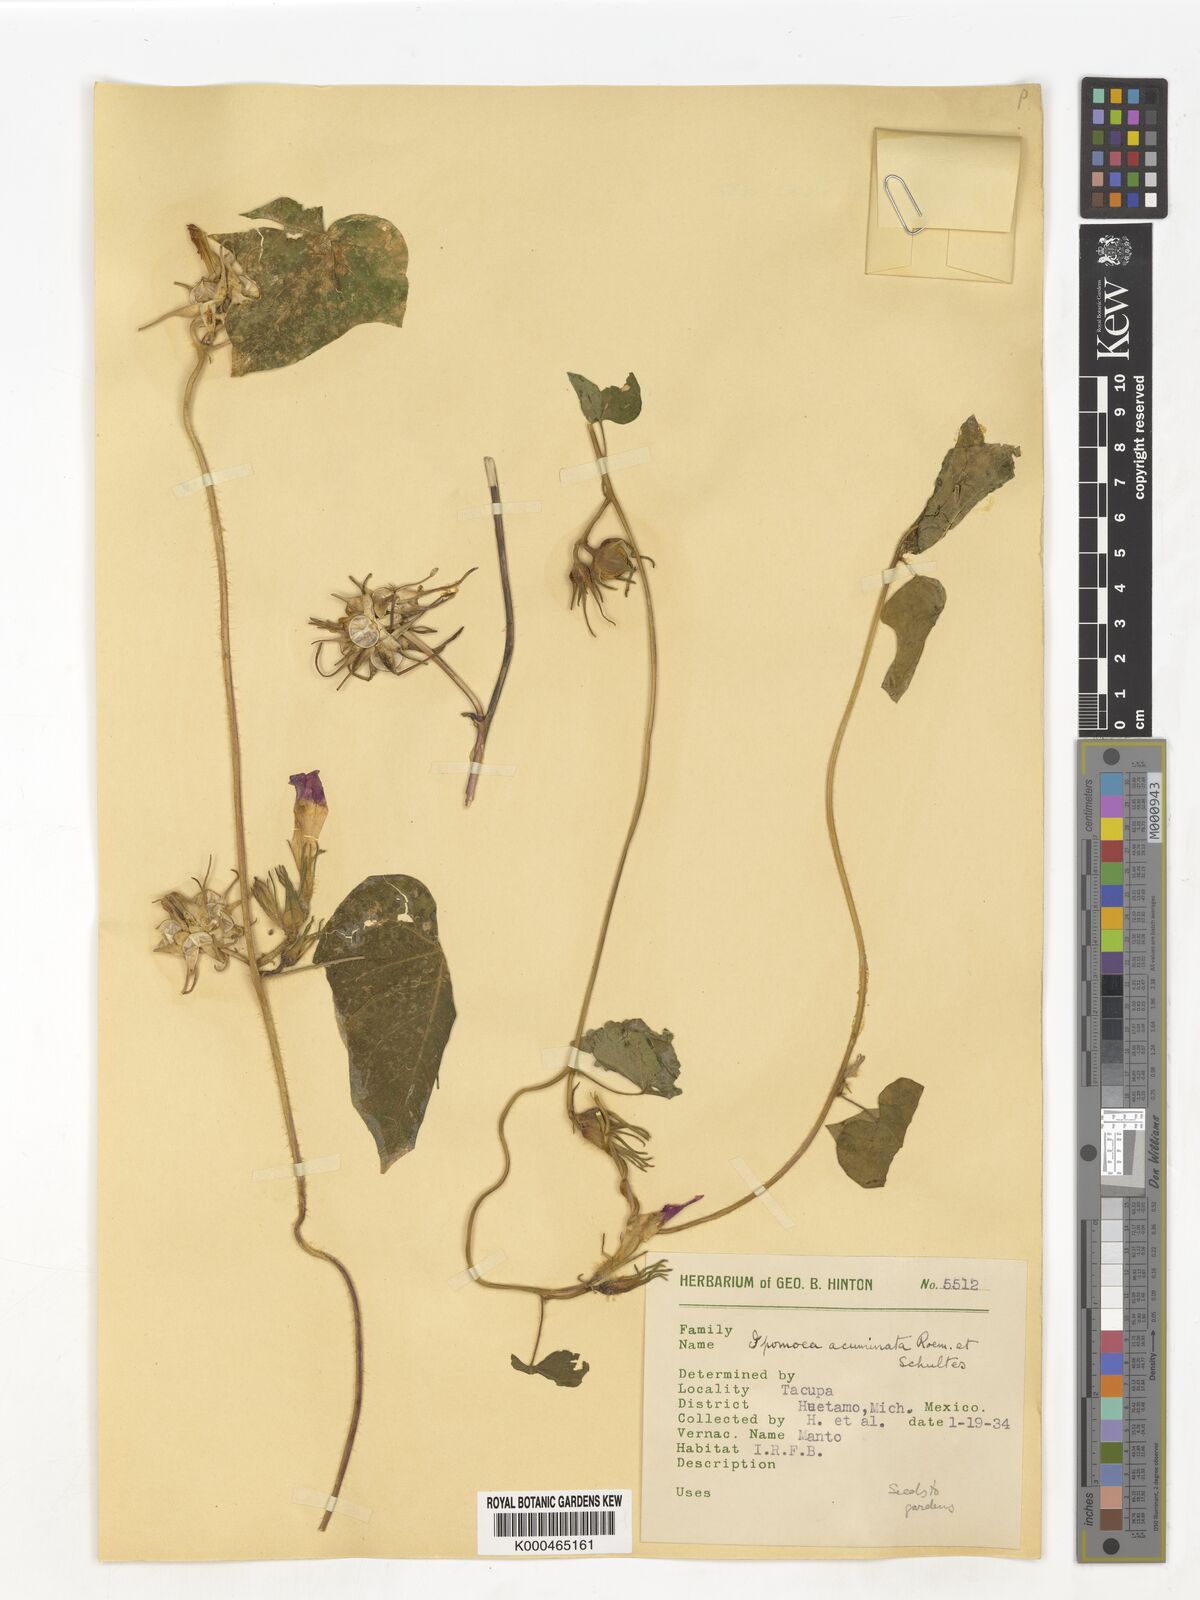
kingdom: Plantae
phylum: Tracheophyta
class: Magnoliopsida
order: Solanales
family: Convolvulaceae
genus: Ipomoea
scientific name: Ipomoea
